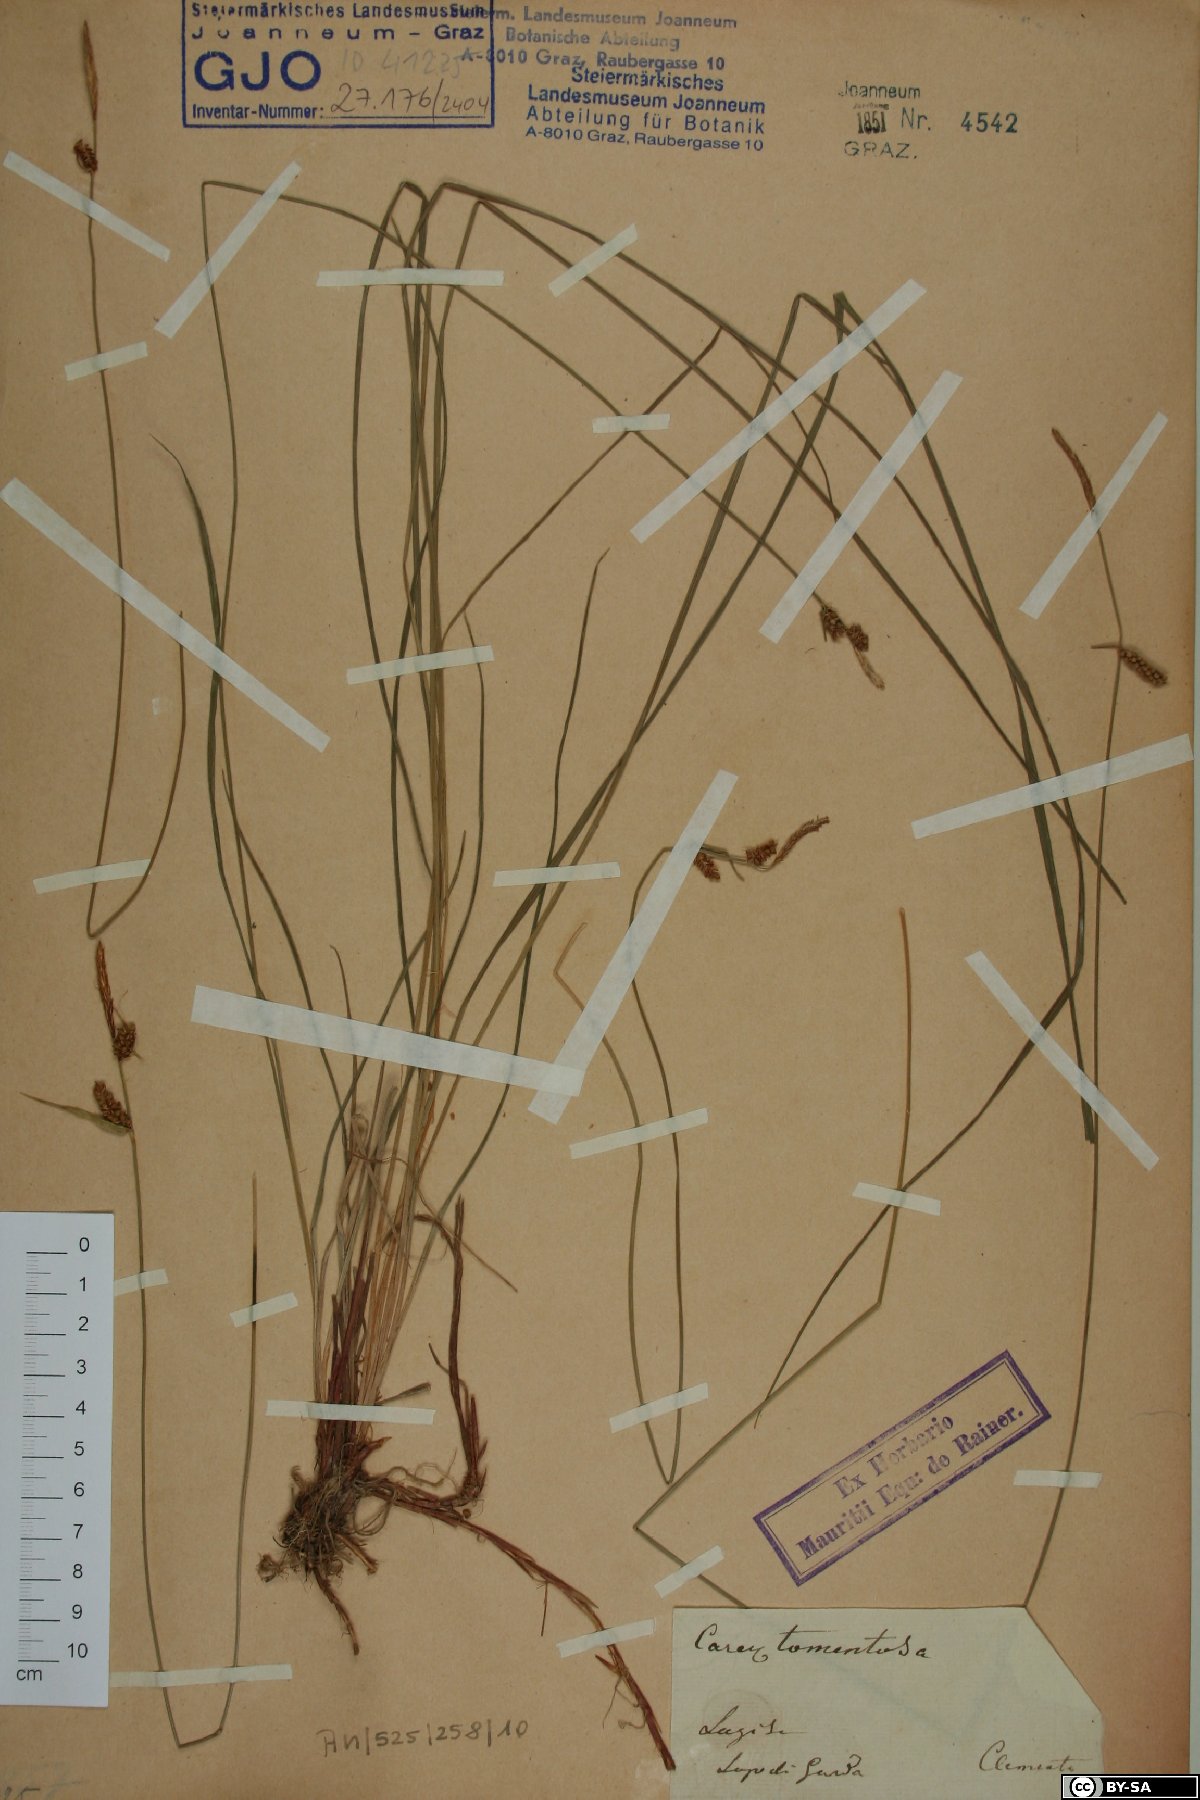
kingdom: Plantae
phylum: Tracheophyta
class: Liliopsida
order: Poales
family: Cyperaceae
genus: Carex
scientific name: Carex tomentosa
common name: Downy-fruited sedge
